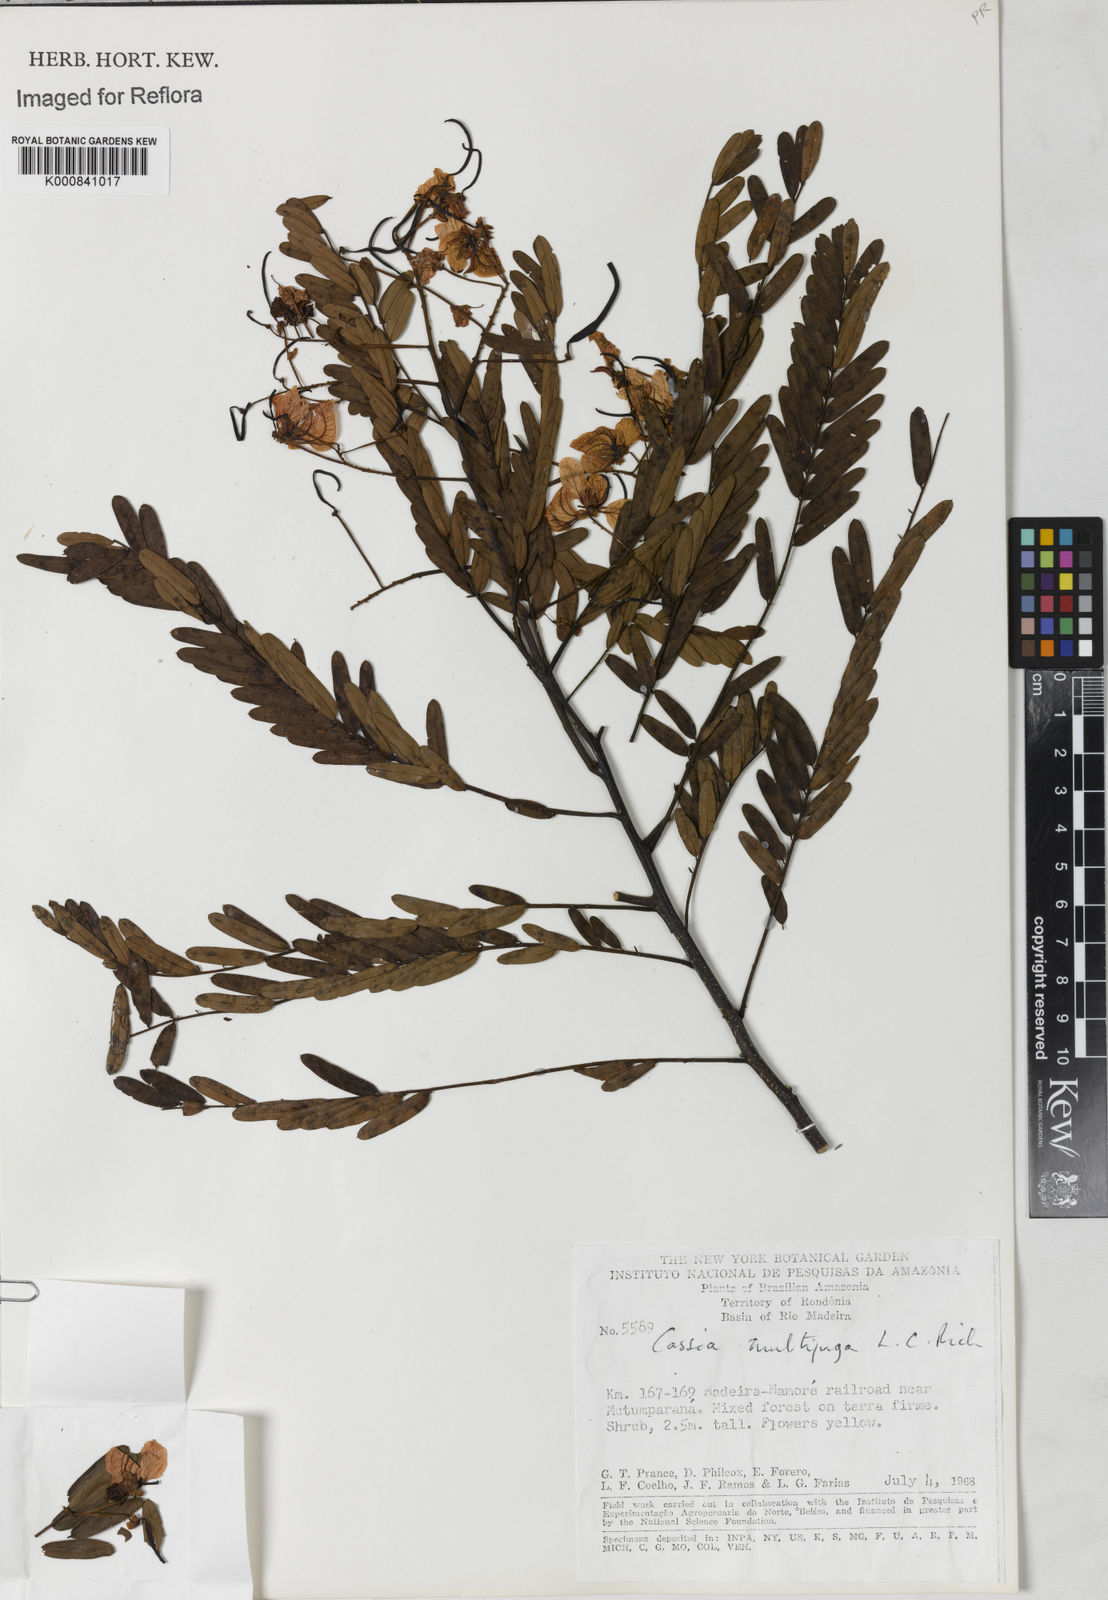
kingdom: Plantae
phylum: Tracheophyta
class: Magnoliopsida
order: Fabales
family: Fabaceae
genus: Senna
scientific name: Senna multijuga
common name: False sicklepod
